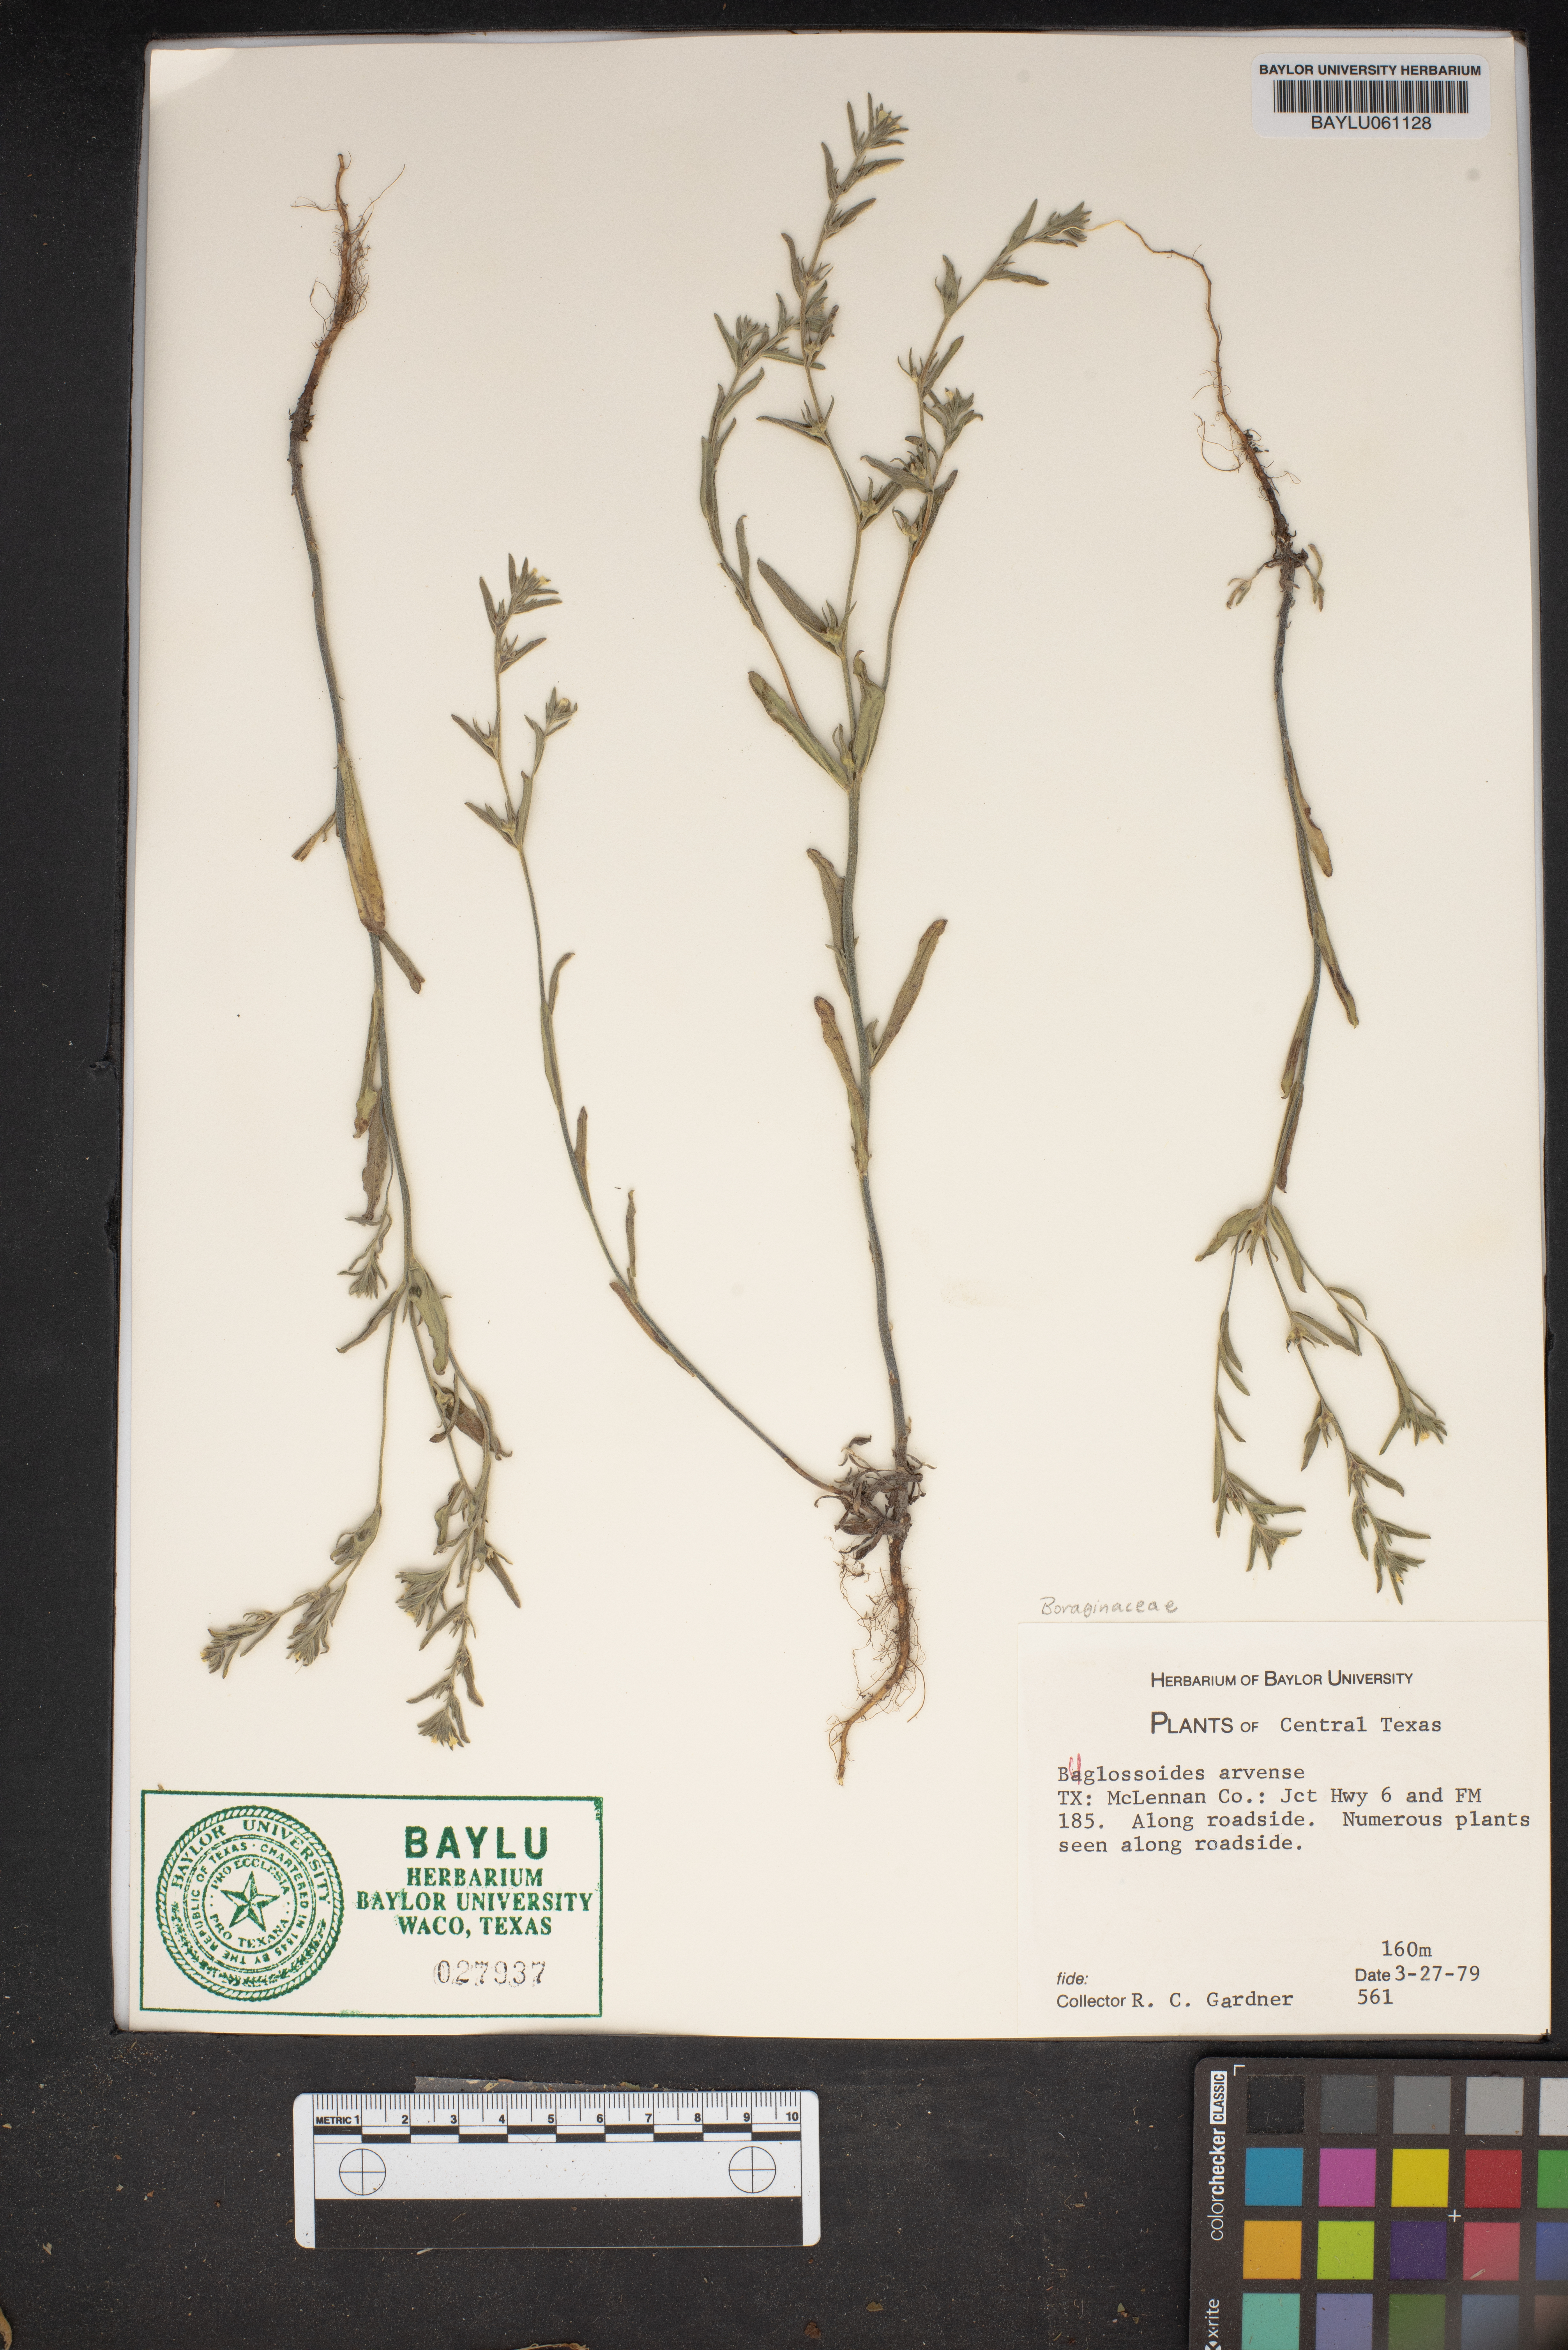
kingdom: Plantae
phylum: Tracheophyta
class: Magnoliopsida
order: Boraginales
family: Boraginaceae
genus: Buglossoides
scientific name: Buglossoides arvensis
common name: Corn gromwell
